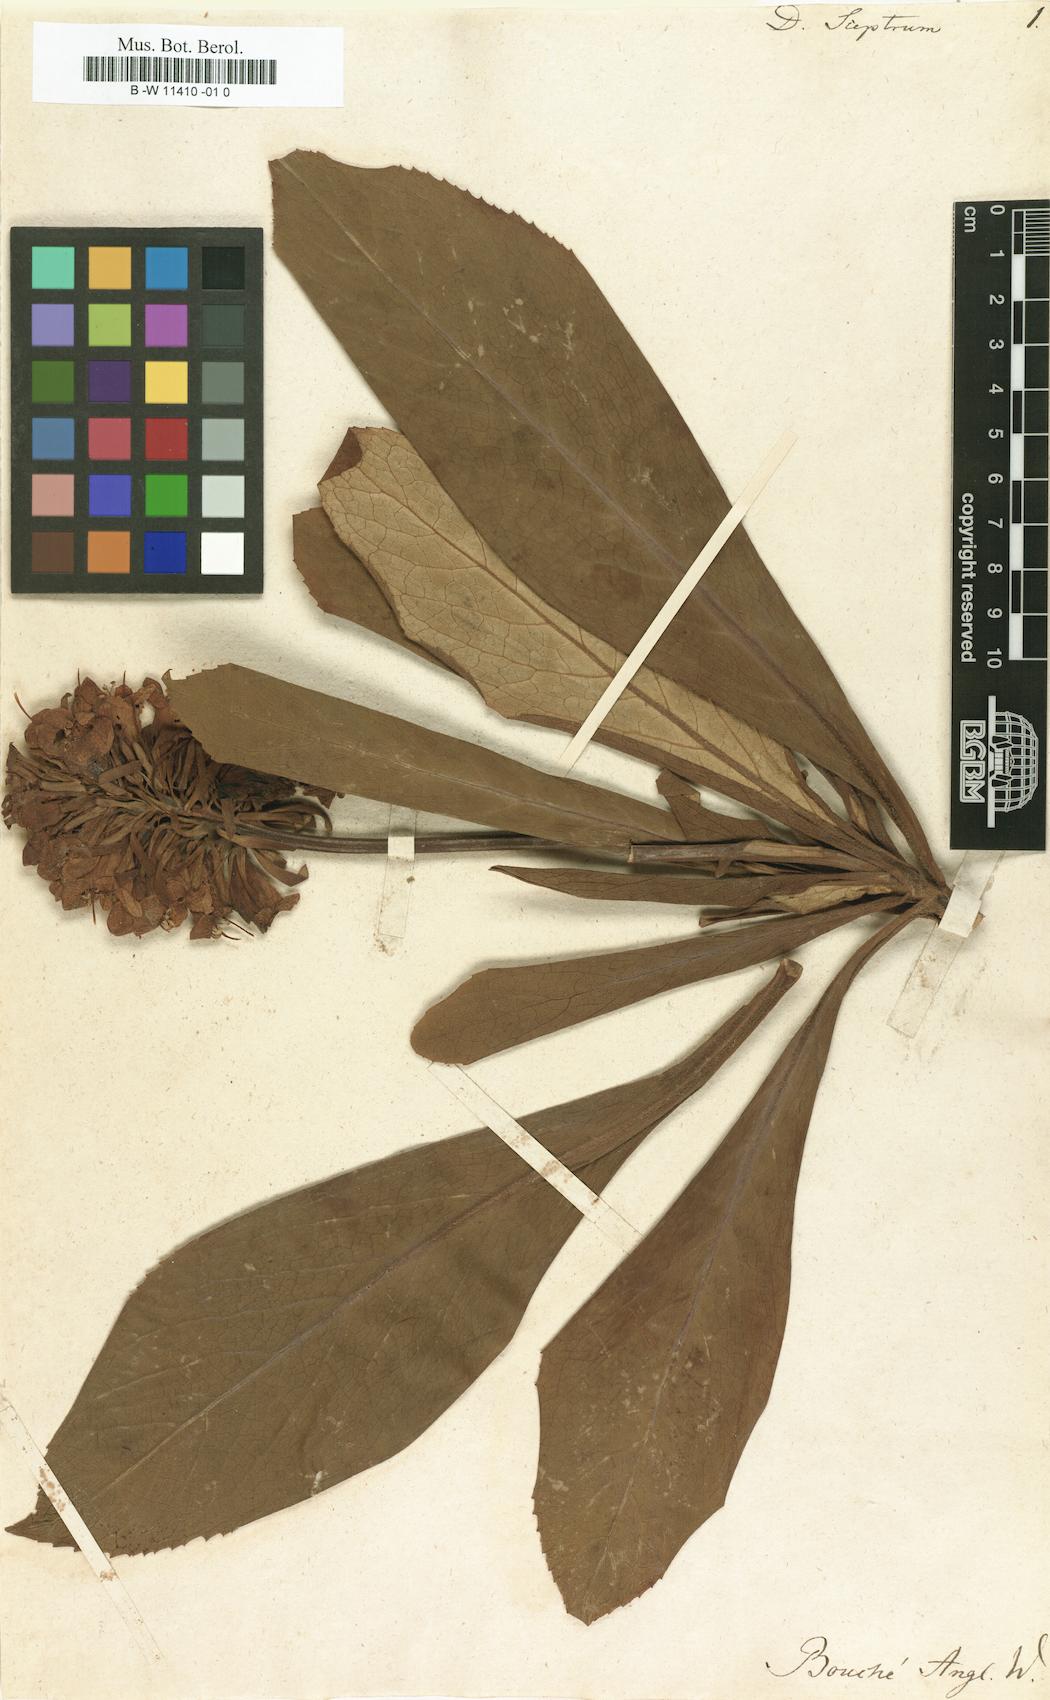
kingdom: Plantae
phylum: Tracheophyta
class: Magnoliopsida
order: Lamiales
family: Plantaginaceae
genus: Digitalis
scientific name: Digitalis sceptrum
